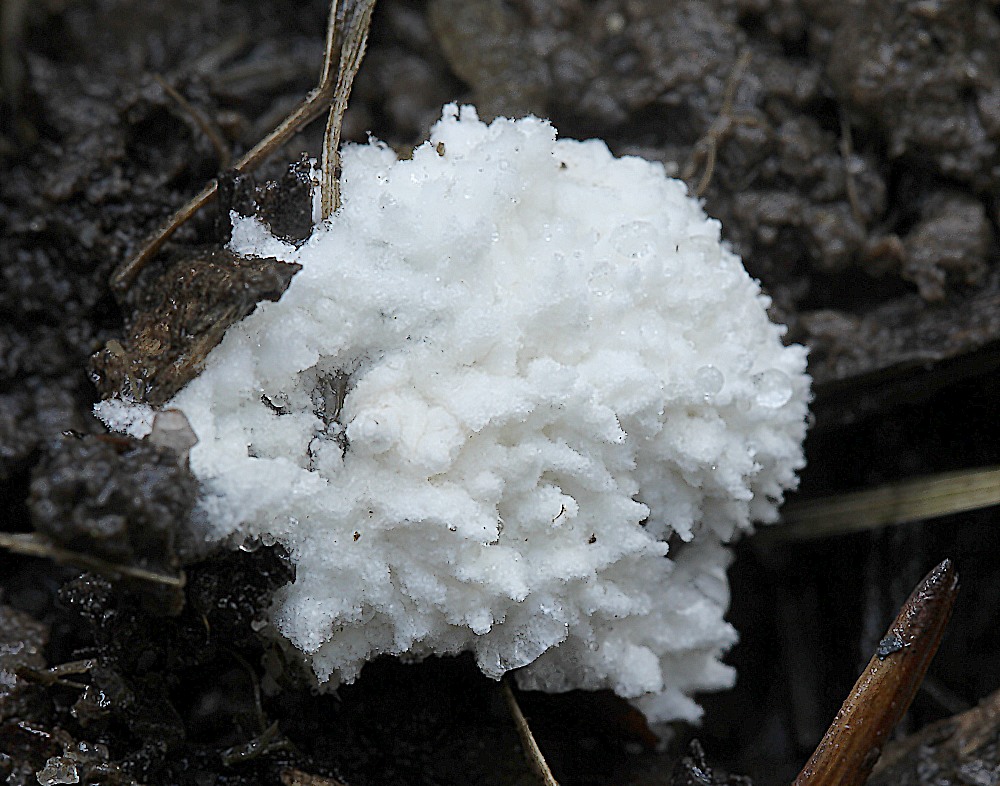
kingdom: Fungi
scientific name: Fungi
